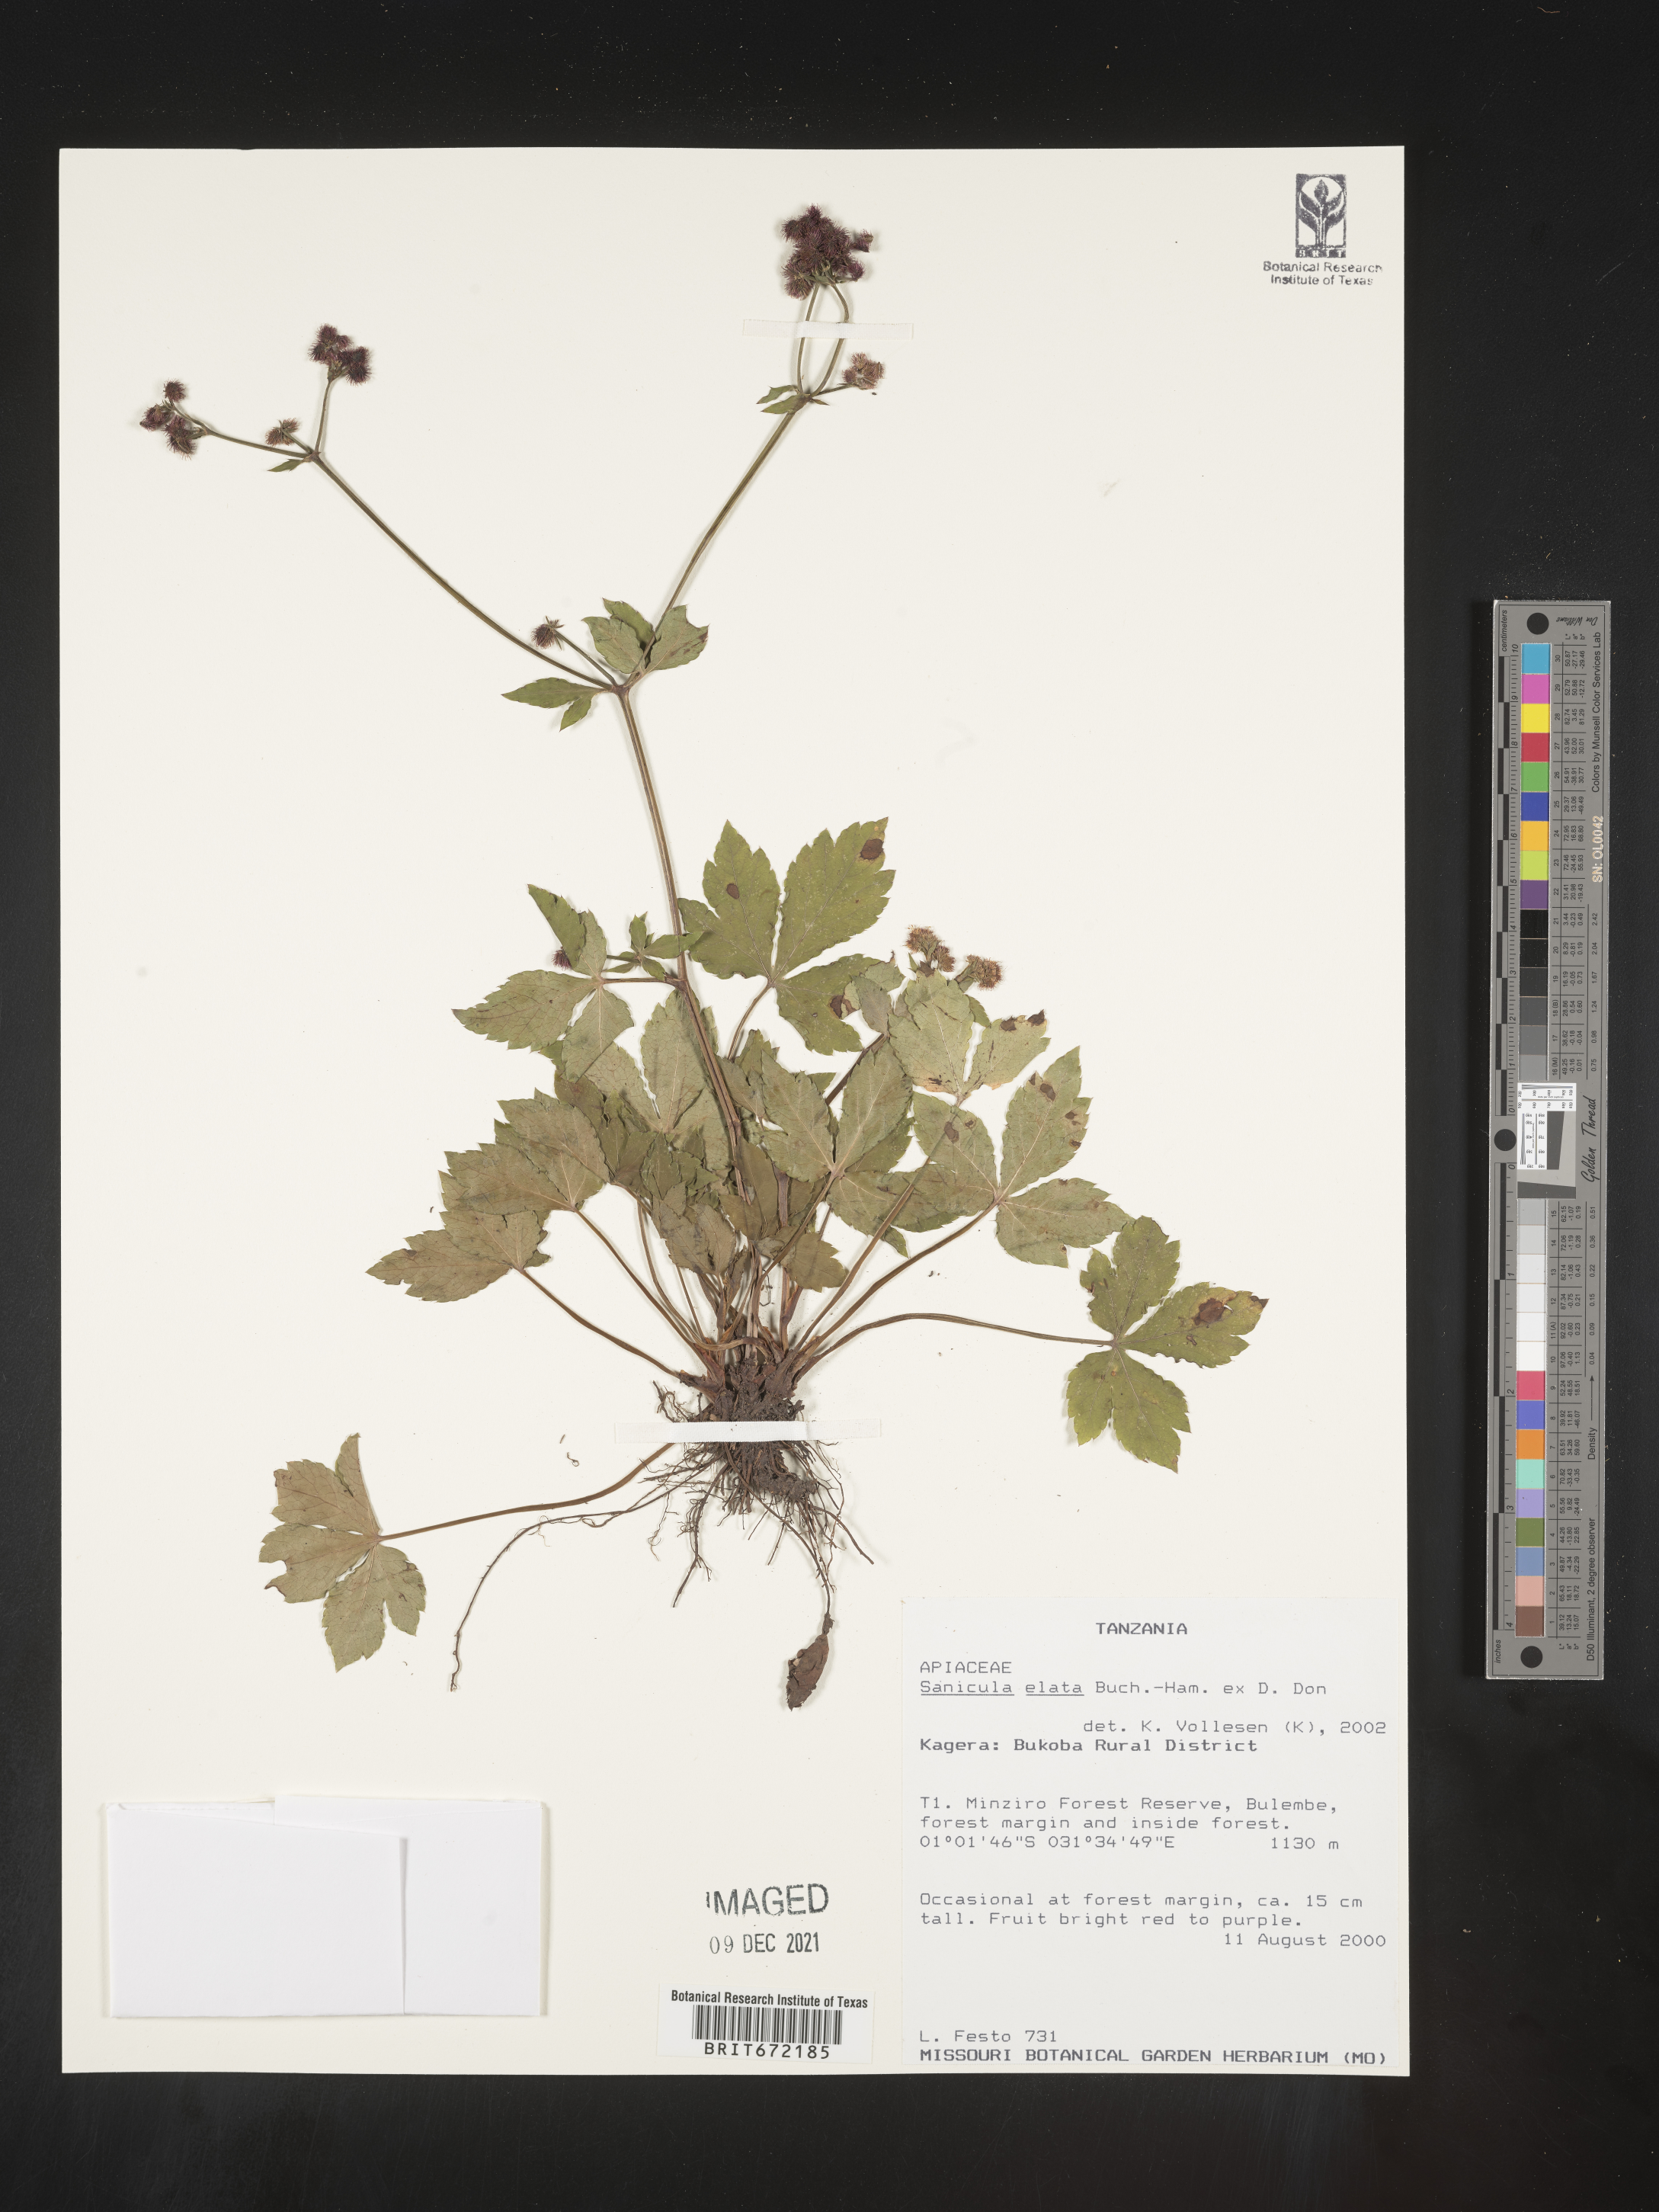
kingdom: Plantae
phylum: Tracheophyta
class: Magnoliopsida
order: Apiales
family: Apiaceae
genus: Sanicula
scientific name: Sanicula
